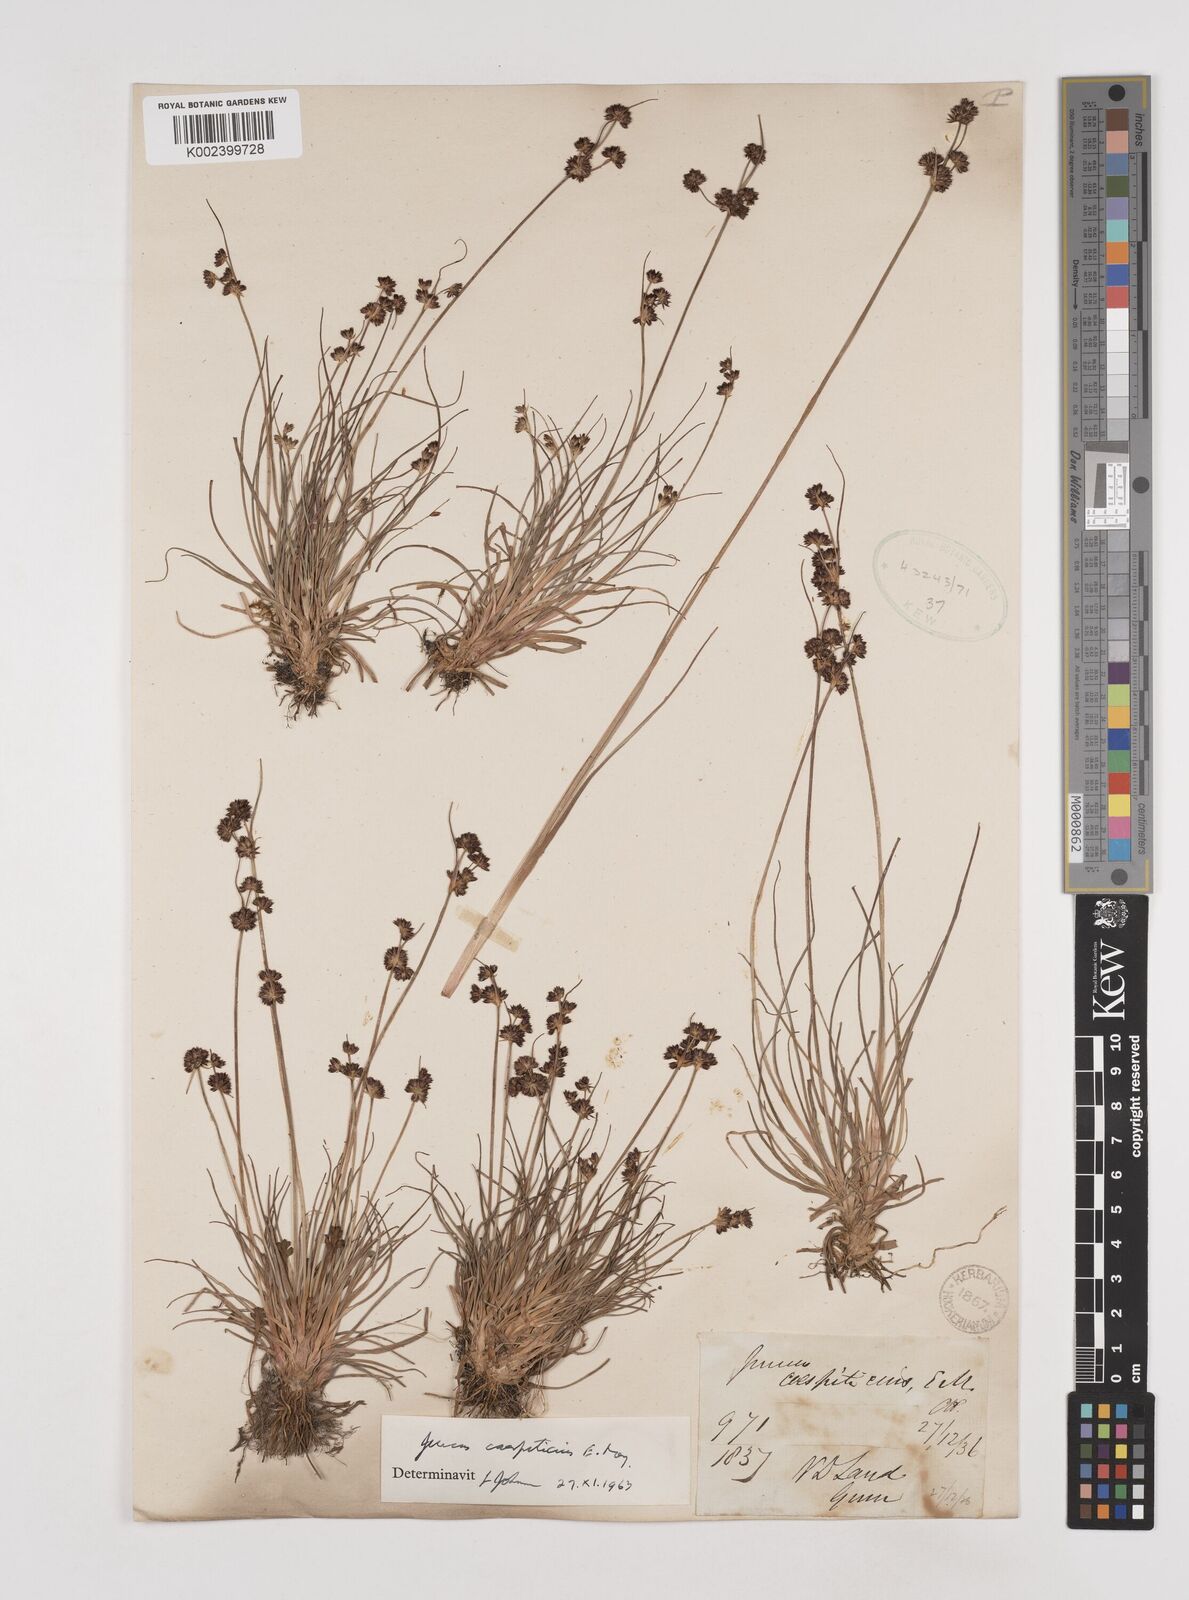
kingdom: Plantae
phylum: Tracheophyta
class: Liliopsida
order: Poales
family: Juncaceae
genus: Juncus
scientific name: Juncus caespiticius
